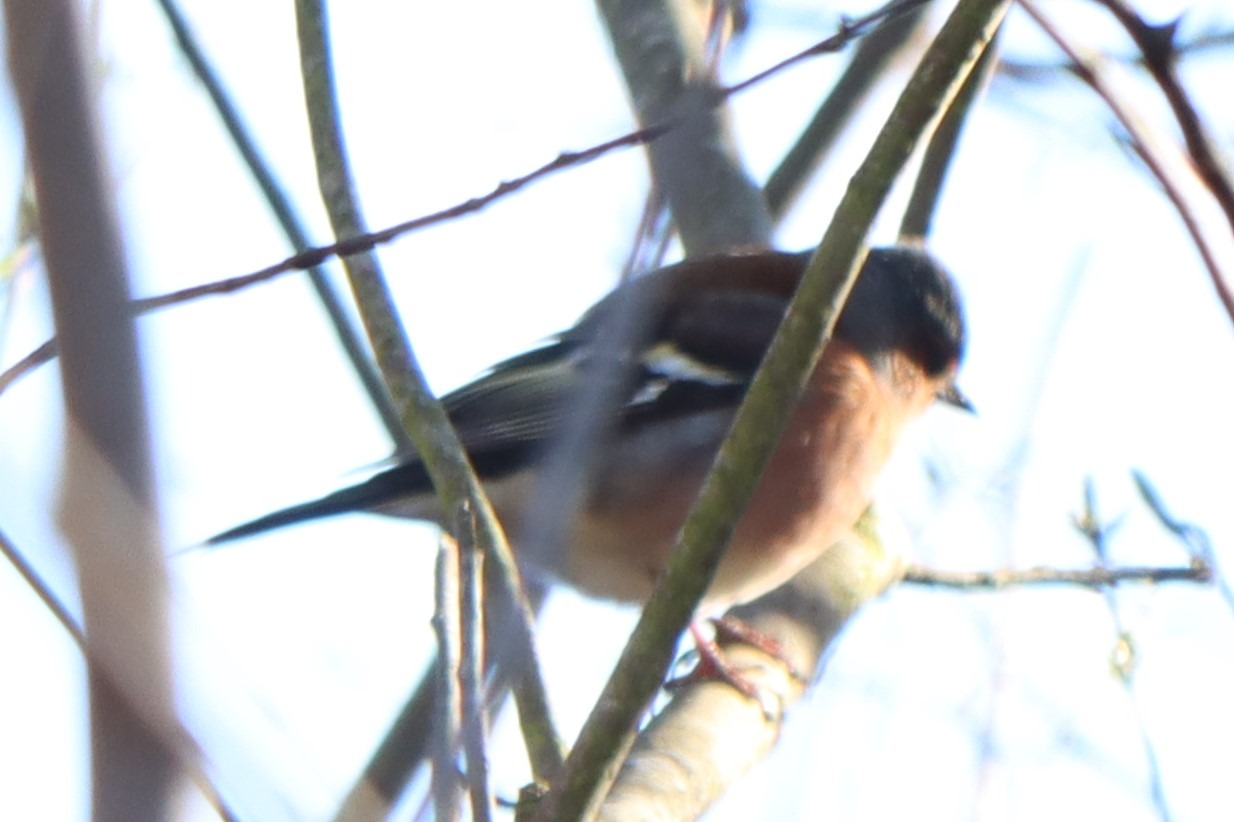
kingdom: Animalia
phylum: Chordata
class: Aves
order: Passeriformes
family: Fringillidae
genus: Fringilla
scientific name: Fringilla coelebs
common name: Bogfinke
